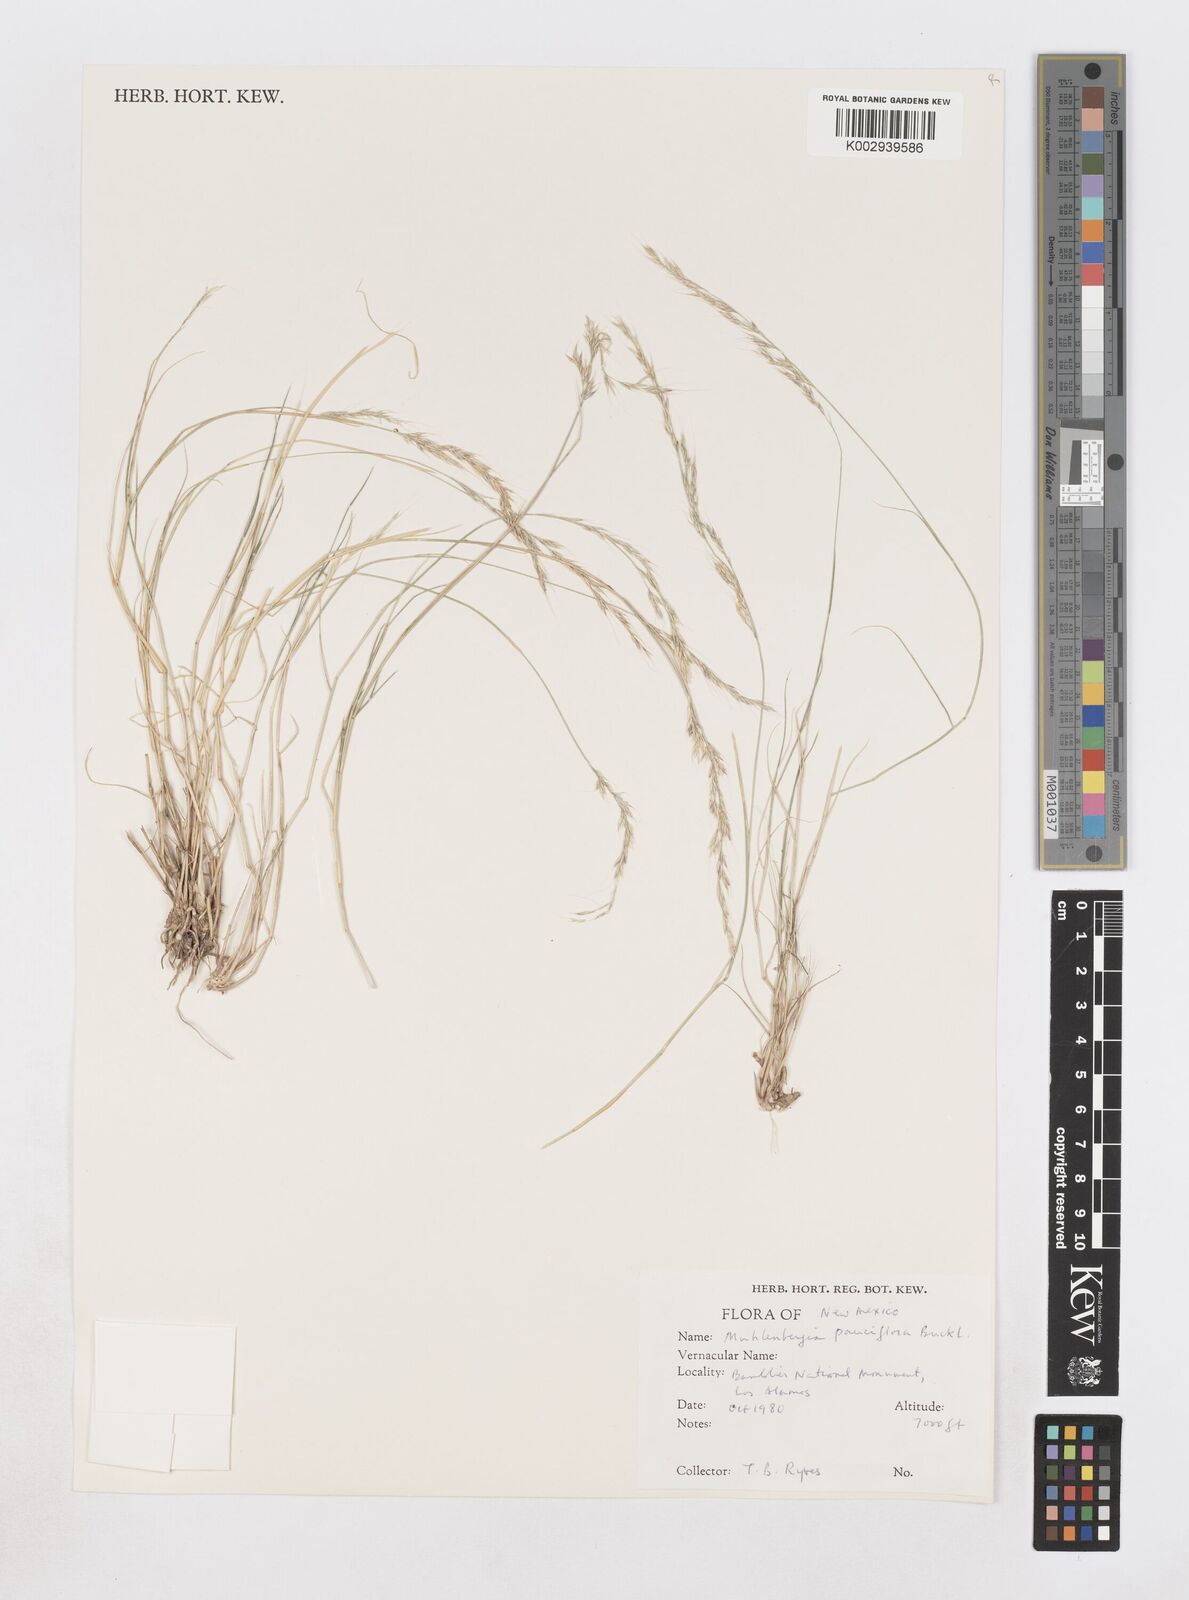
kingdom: Plantae
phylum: Tracheophyta
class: Liliopsida
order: Poales
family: Poaceae
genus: Muhlenbergia
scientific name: Muhlenbergia pauciflora
